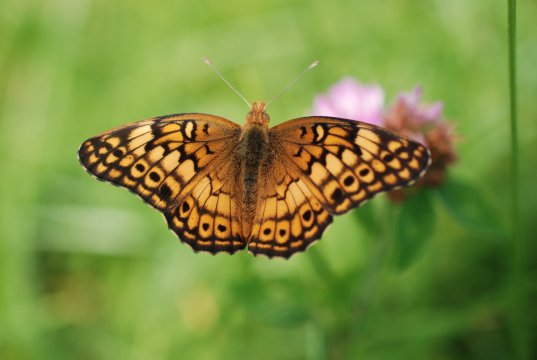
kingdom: Animalia
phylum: Arthropoda
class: Insecta
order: Lepidoptera
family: Nymphalidae
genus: Euptoieta
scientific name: Euptoieta claudia
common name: Variegated Fritillary
